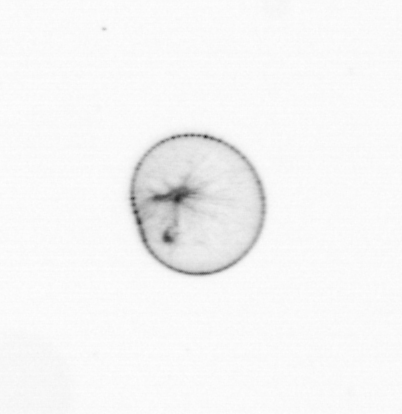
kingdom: Chromista
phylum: Myzozoa
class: Dinophyceae
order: Noctilucales
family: Noctilucaceae
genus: Noctiluca
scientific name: Noctiluca scintillans
